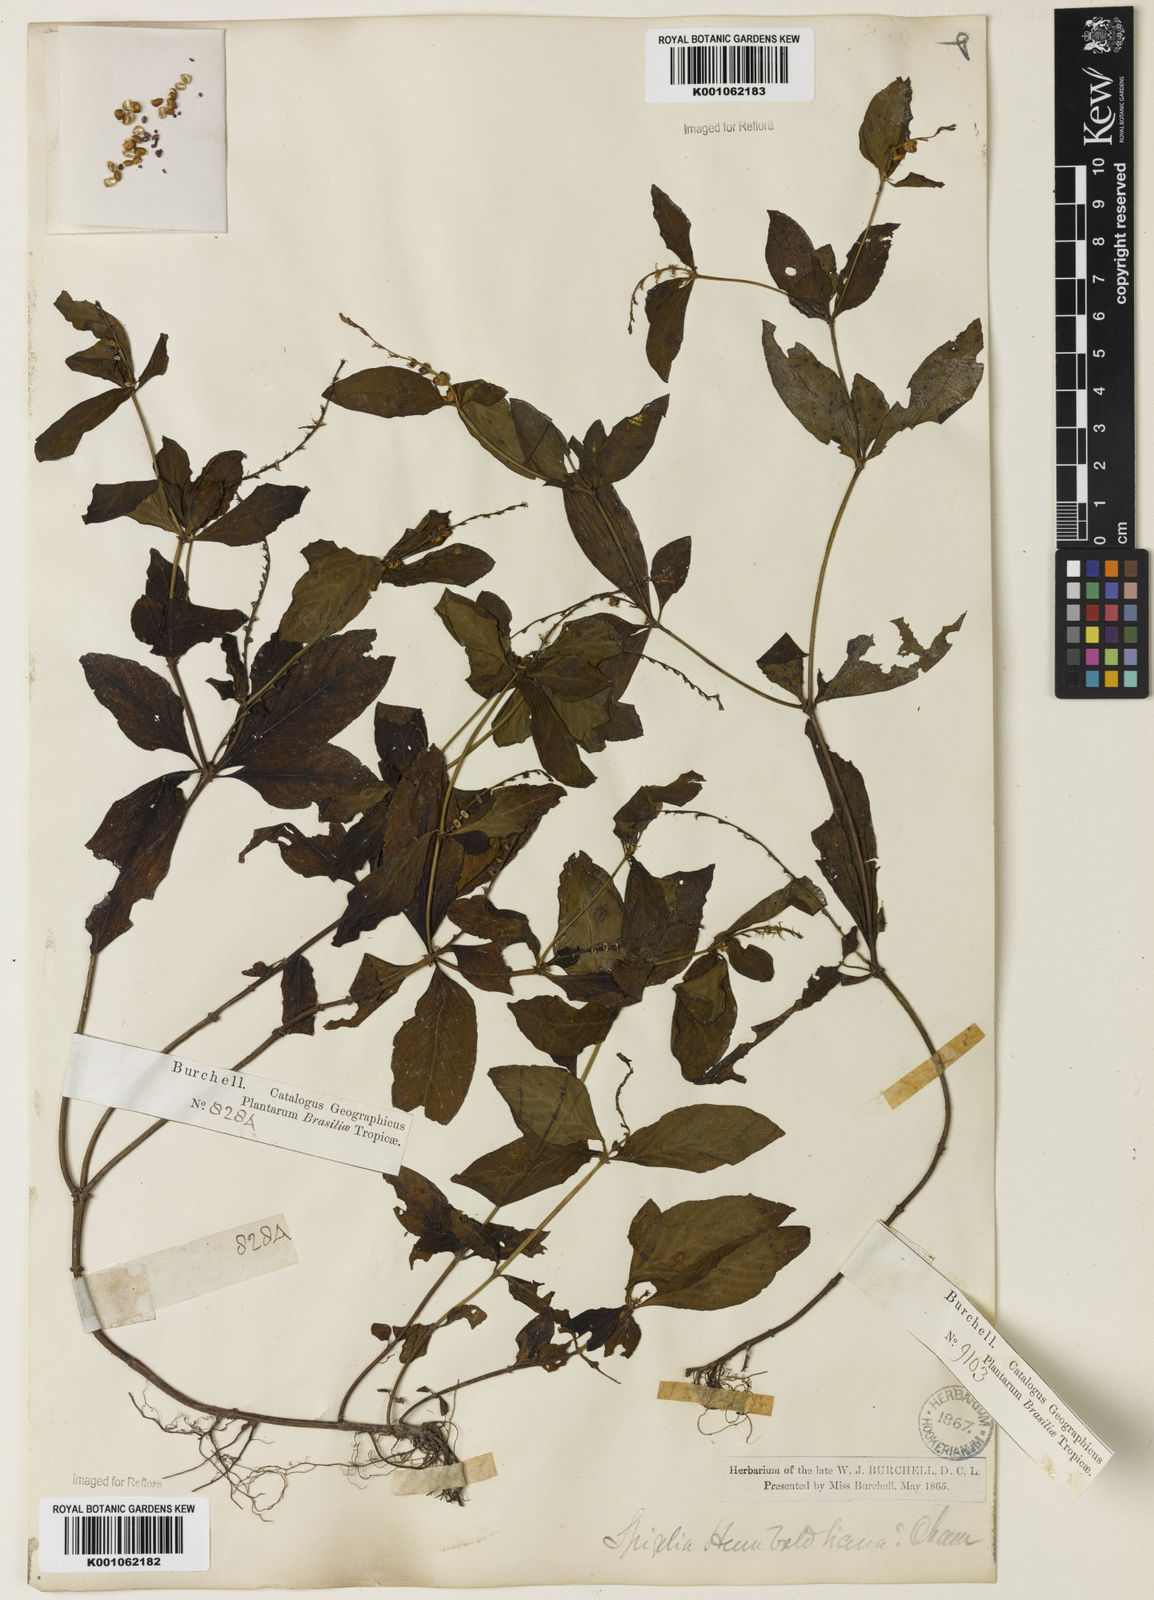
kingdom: Plantae
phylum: Tracheophyta
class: Magnoliopsida
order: Gentianales
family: Loganiaceae
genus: Spigelia
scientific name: Spigelia humboldtiana
